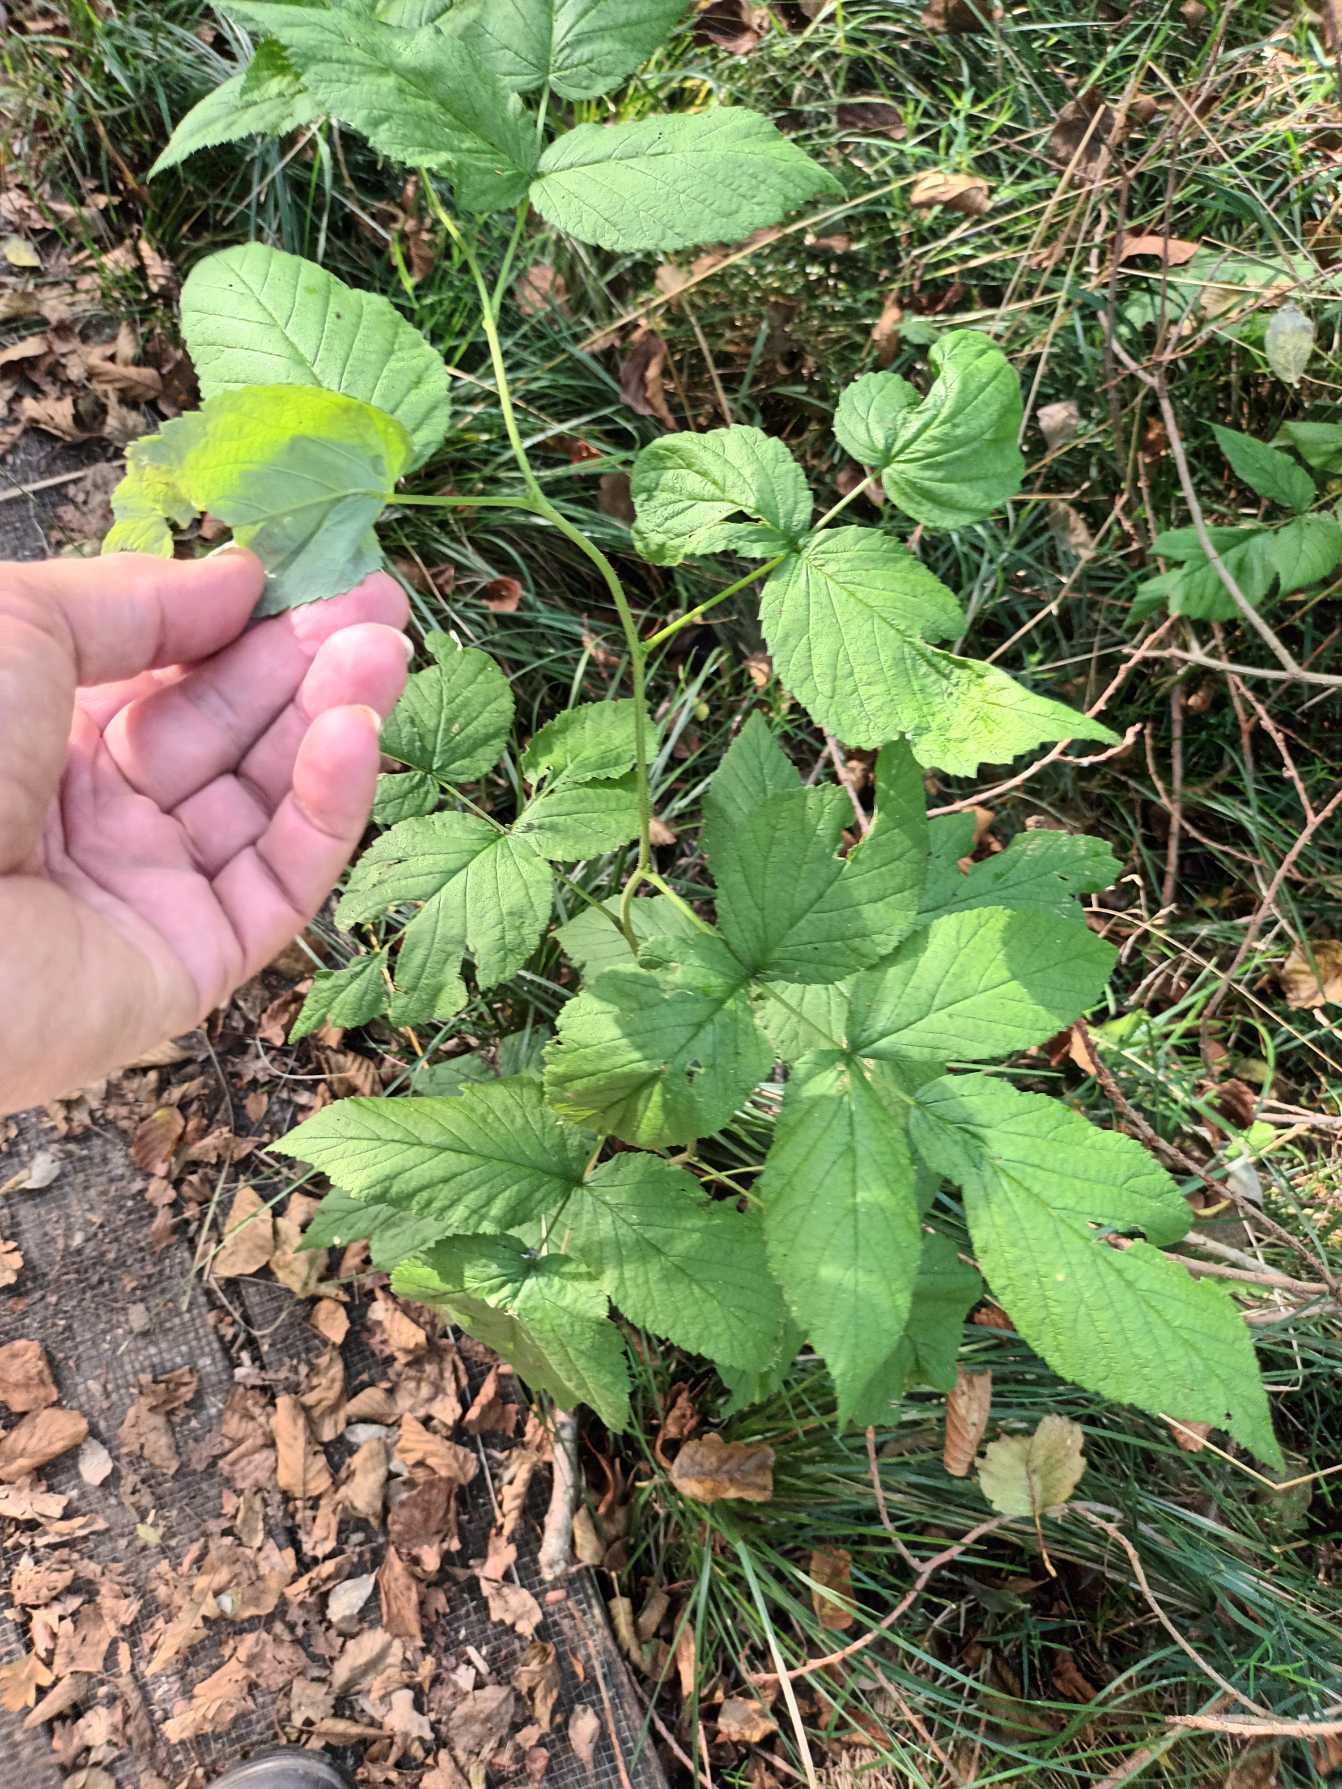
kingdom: Plantae
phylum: Tracheophyta
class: Magnoliopsida
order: Rosales
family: Rosaceae
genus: Rubus
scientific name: Rubus idaeus
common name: Hindbær
